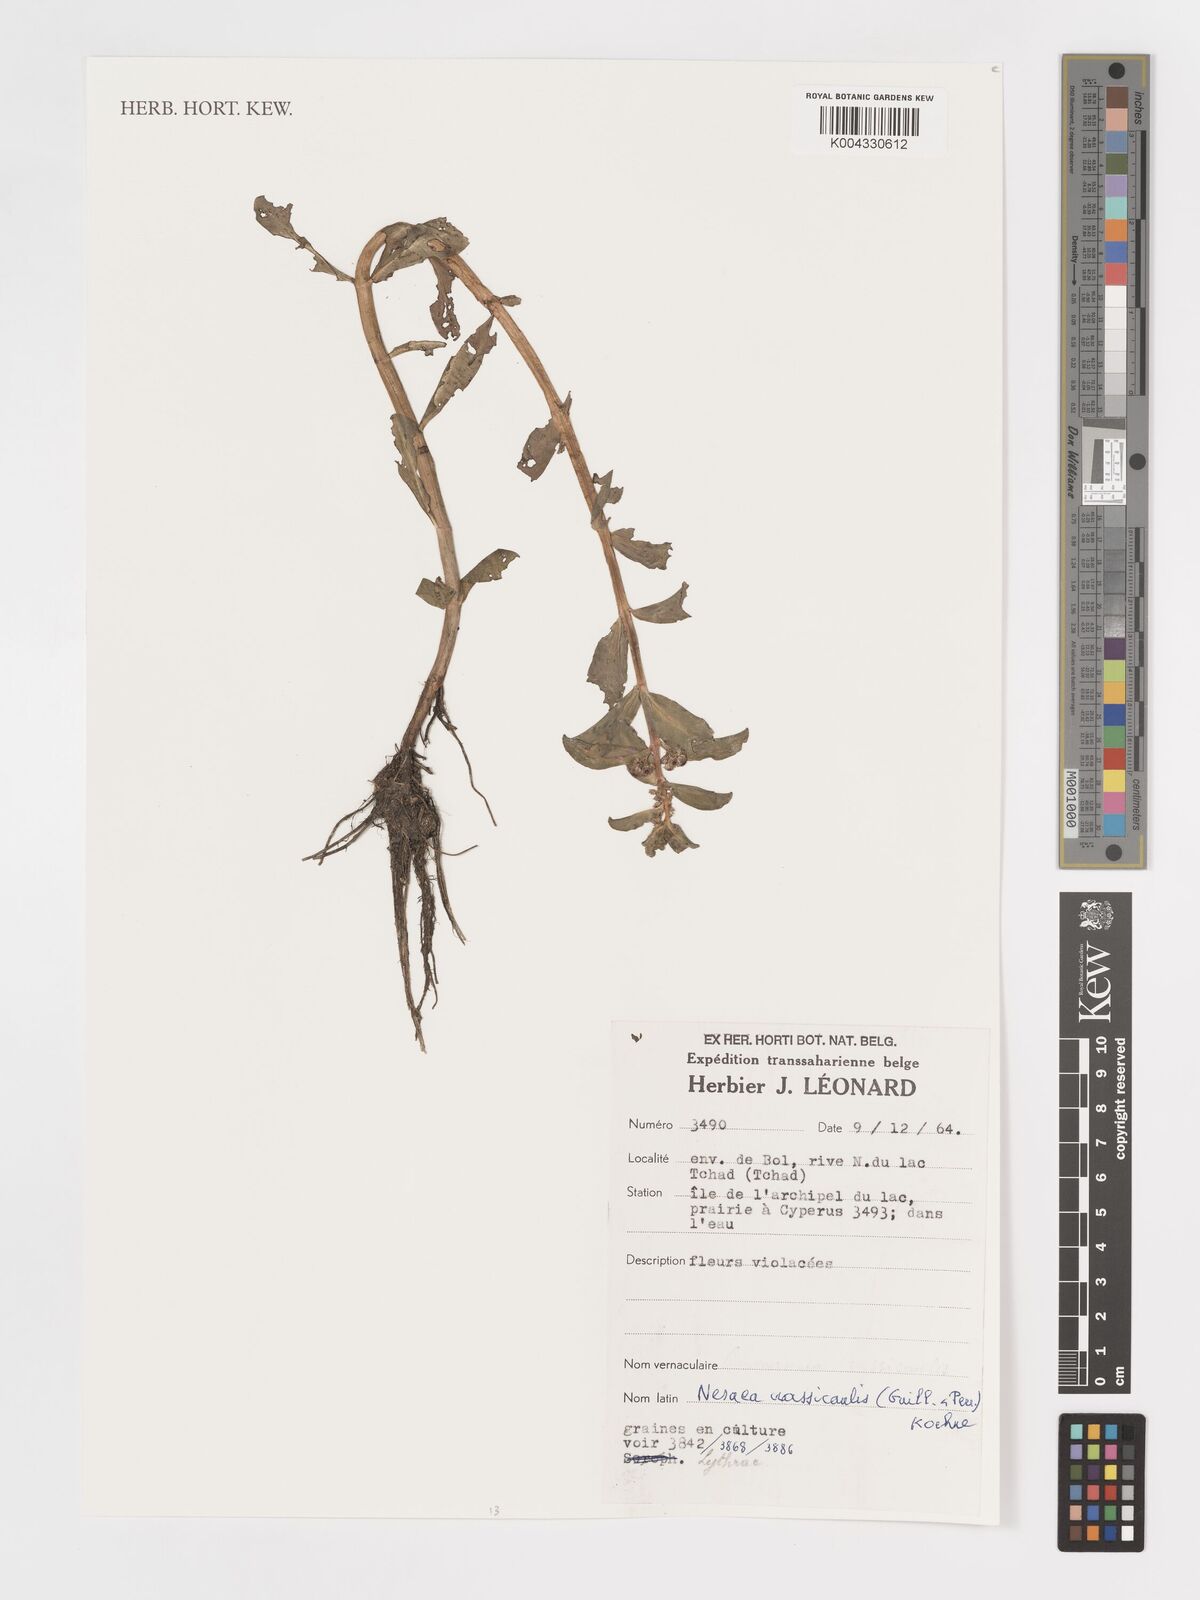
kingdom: Plantae
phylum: Tracheophyta
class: Magnoliopsida
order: Myrtales
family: Lythraceae
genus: Ammannia
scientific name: Ammannia crassicaulis
